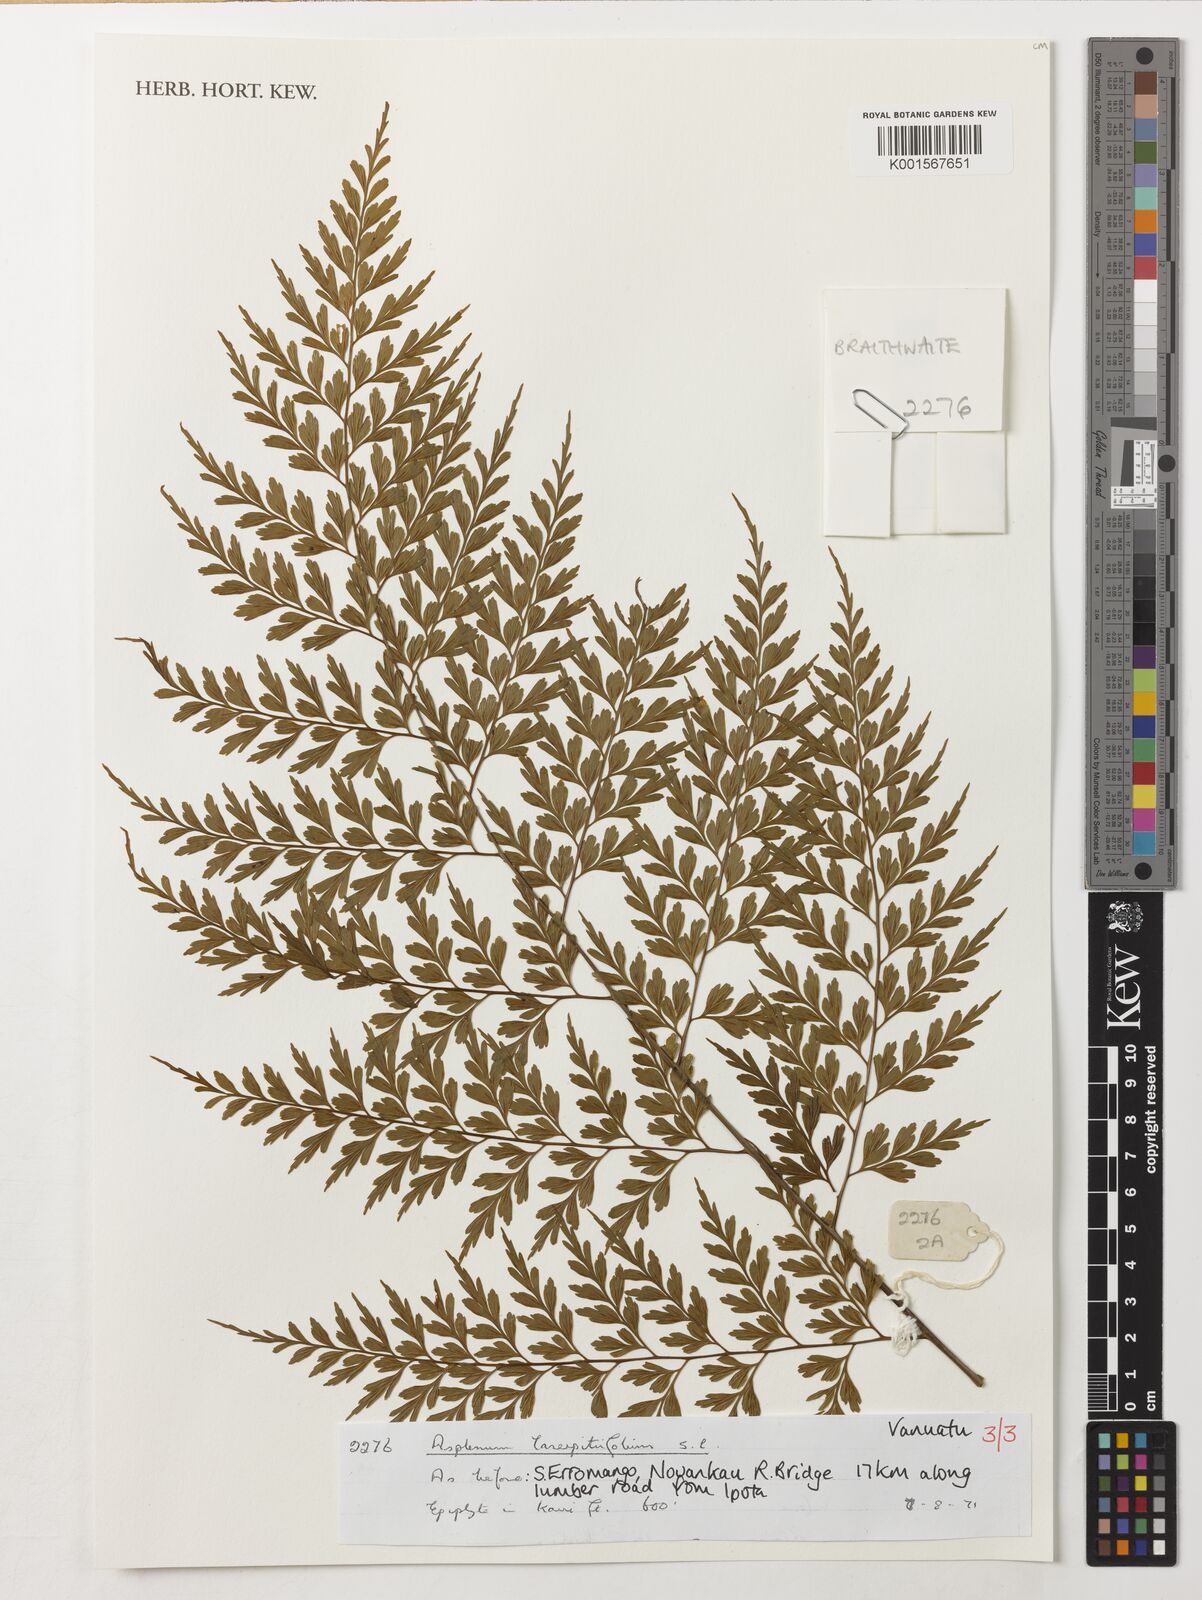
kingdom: Plantae
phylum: Tracheophyta
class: Polypodiopsida
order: Polypodiales
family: Aspleniaceae
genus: Asplenium
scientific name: Asplenium laserpitiifolium
